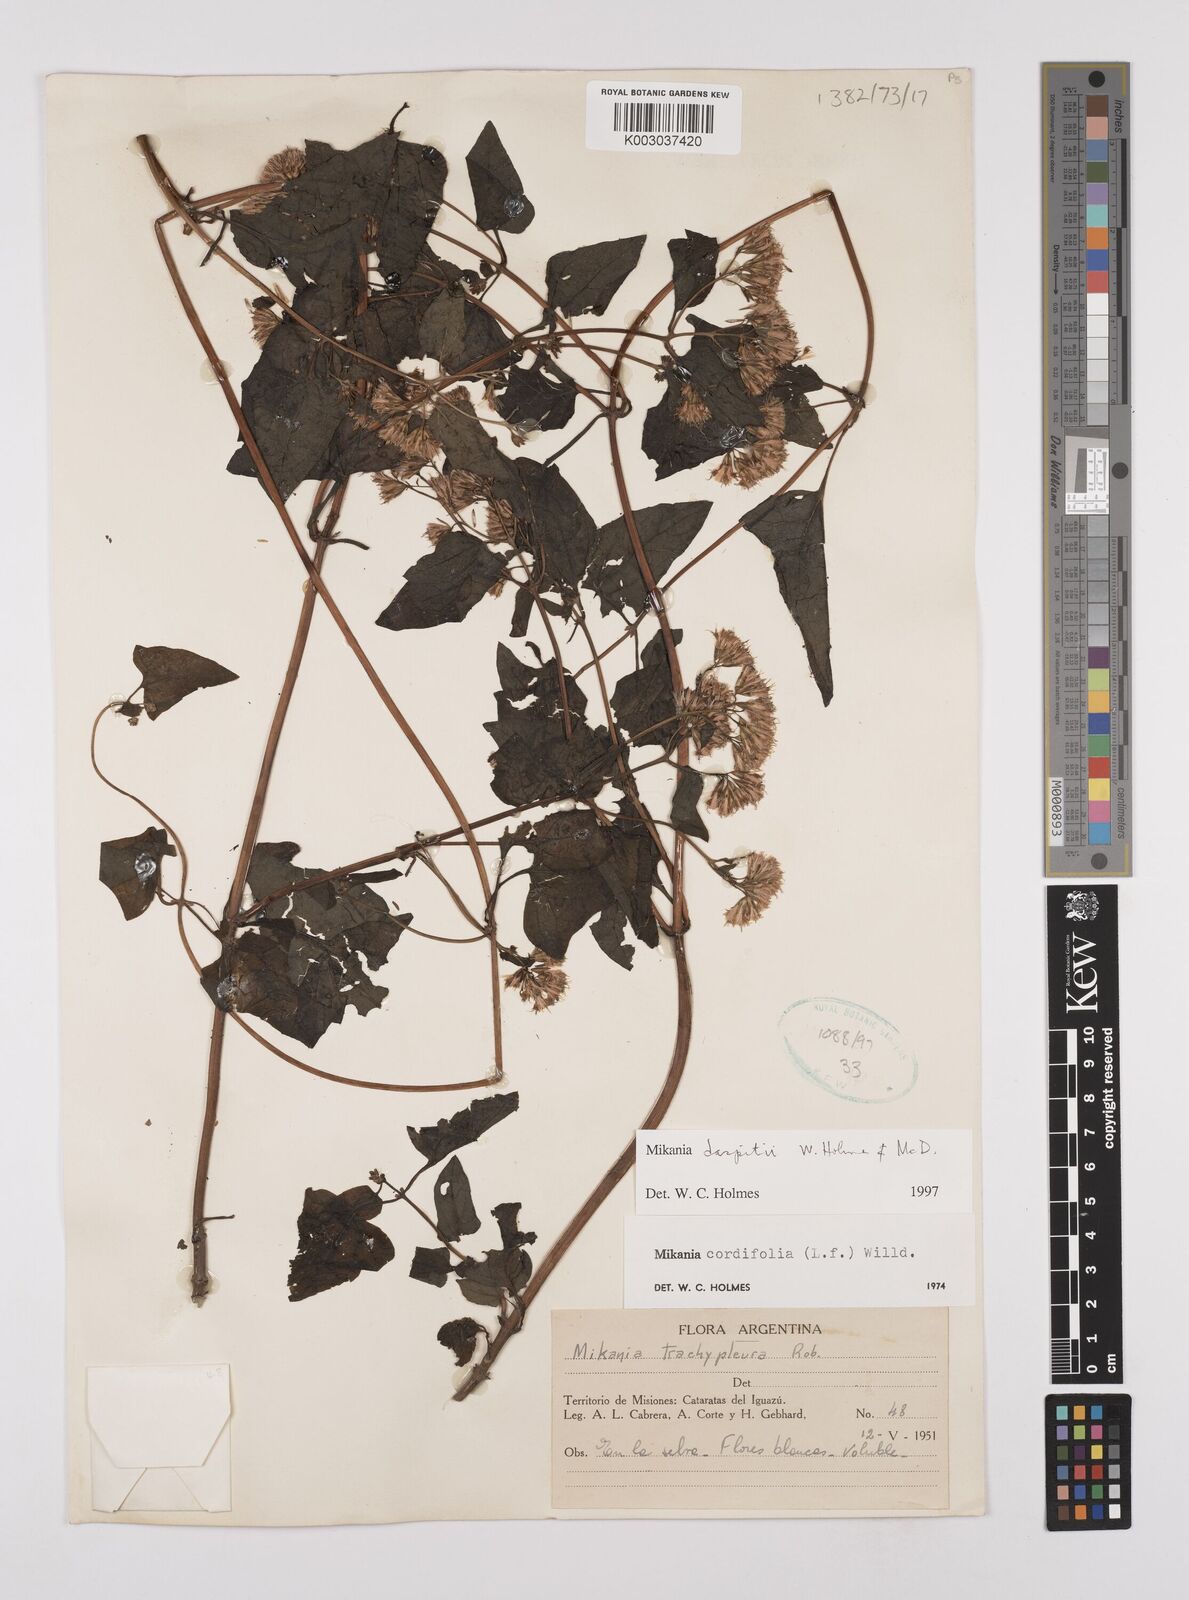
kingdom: Plantae
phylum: Tracheophyta
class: Magnoliopsida
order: Asterales
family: Asteraceae
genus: Mikania
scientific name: Mikania daspitii
